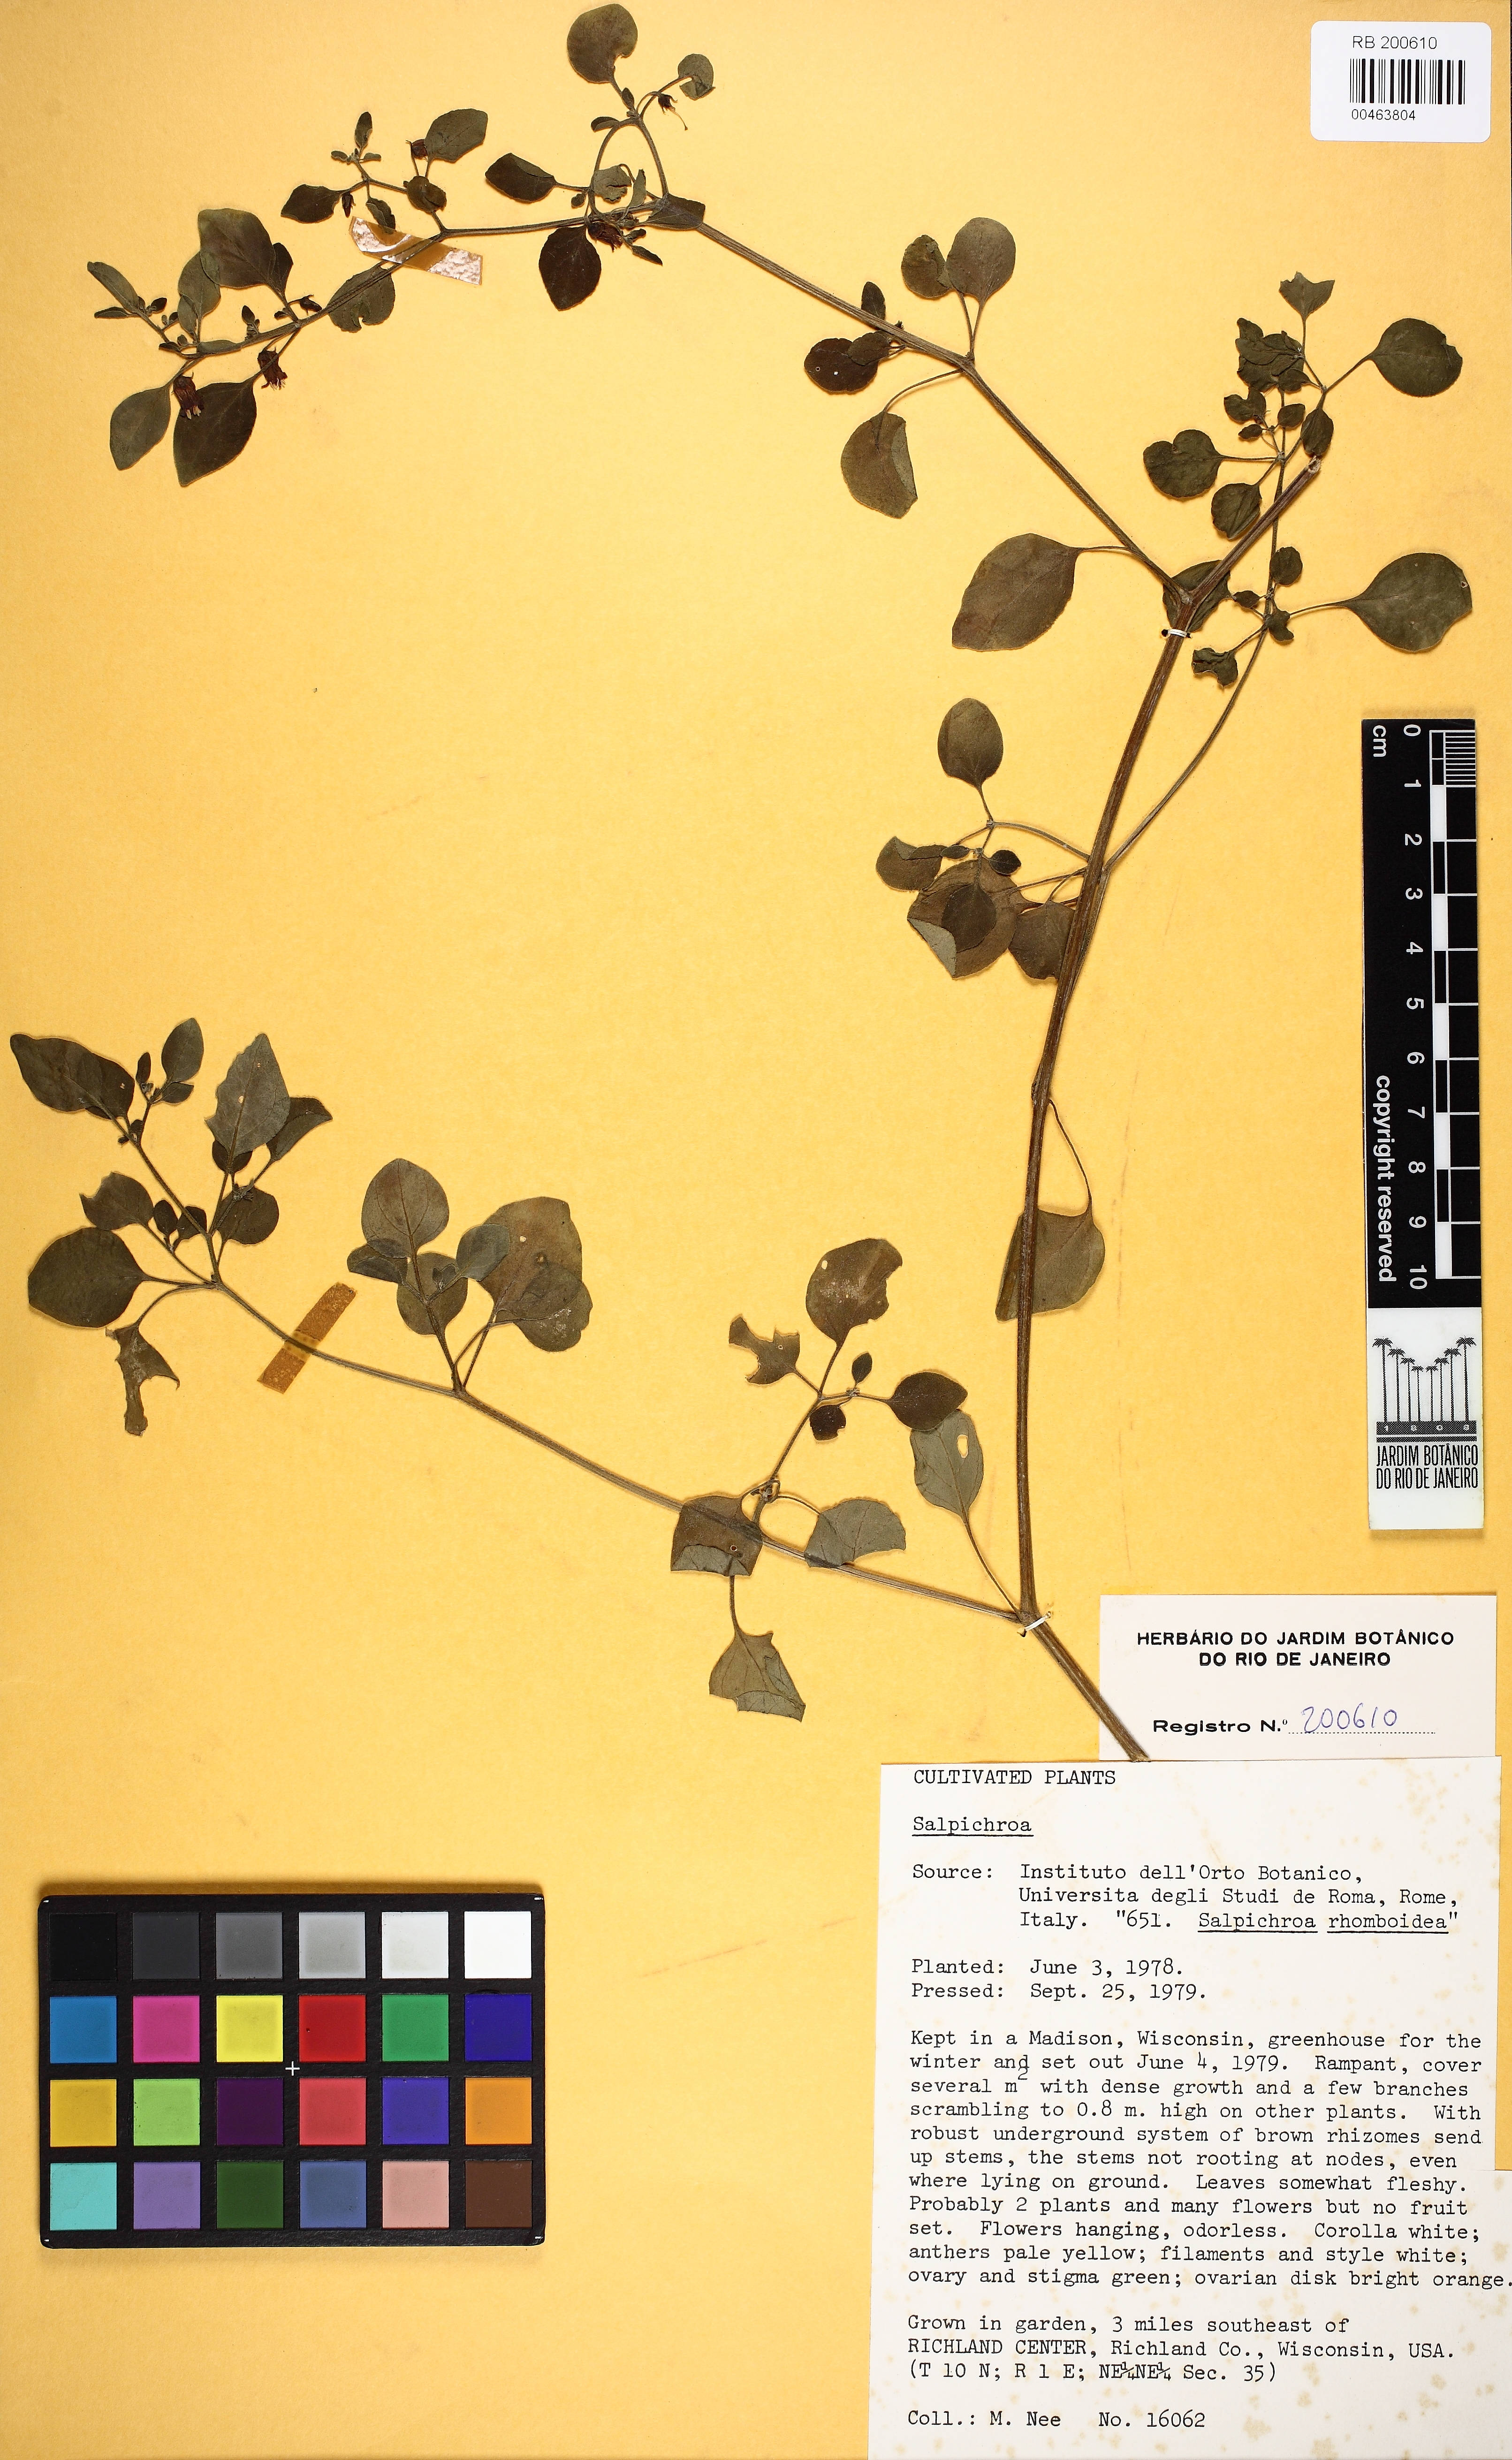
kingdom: Plantae
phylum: Tracheophyta
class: Magnoliopsida
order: Solanales
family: Solanaceae
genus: Salpichroa
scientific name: Salpichroa origanifolia
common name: Lily-of-the-valley-vine
